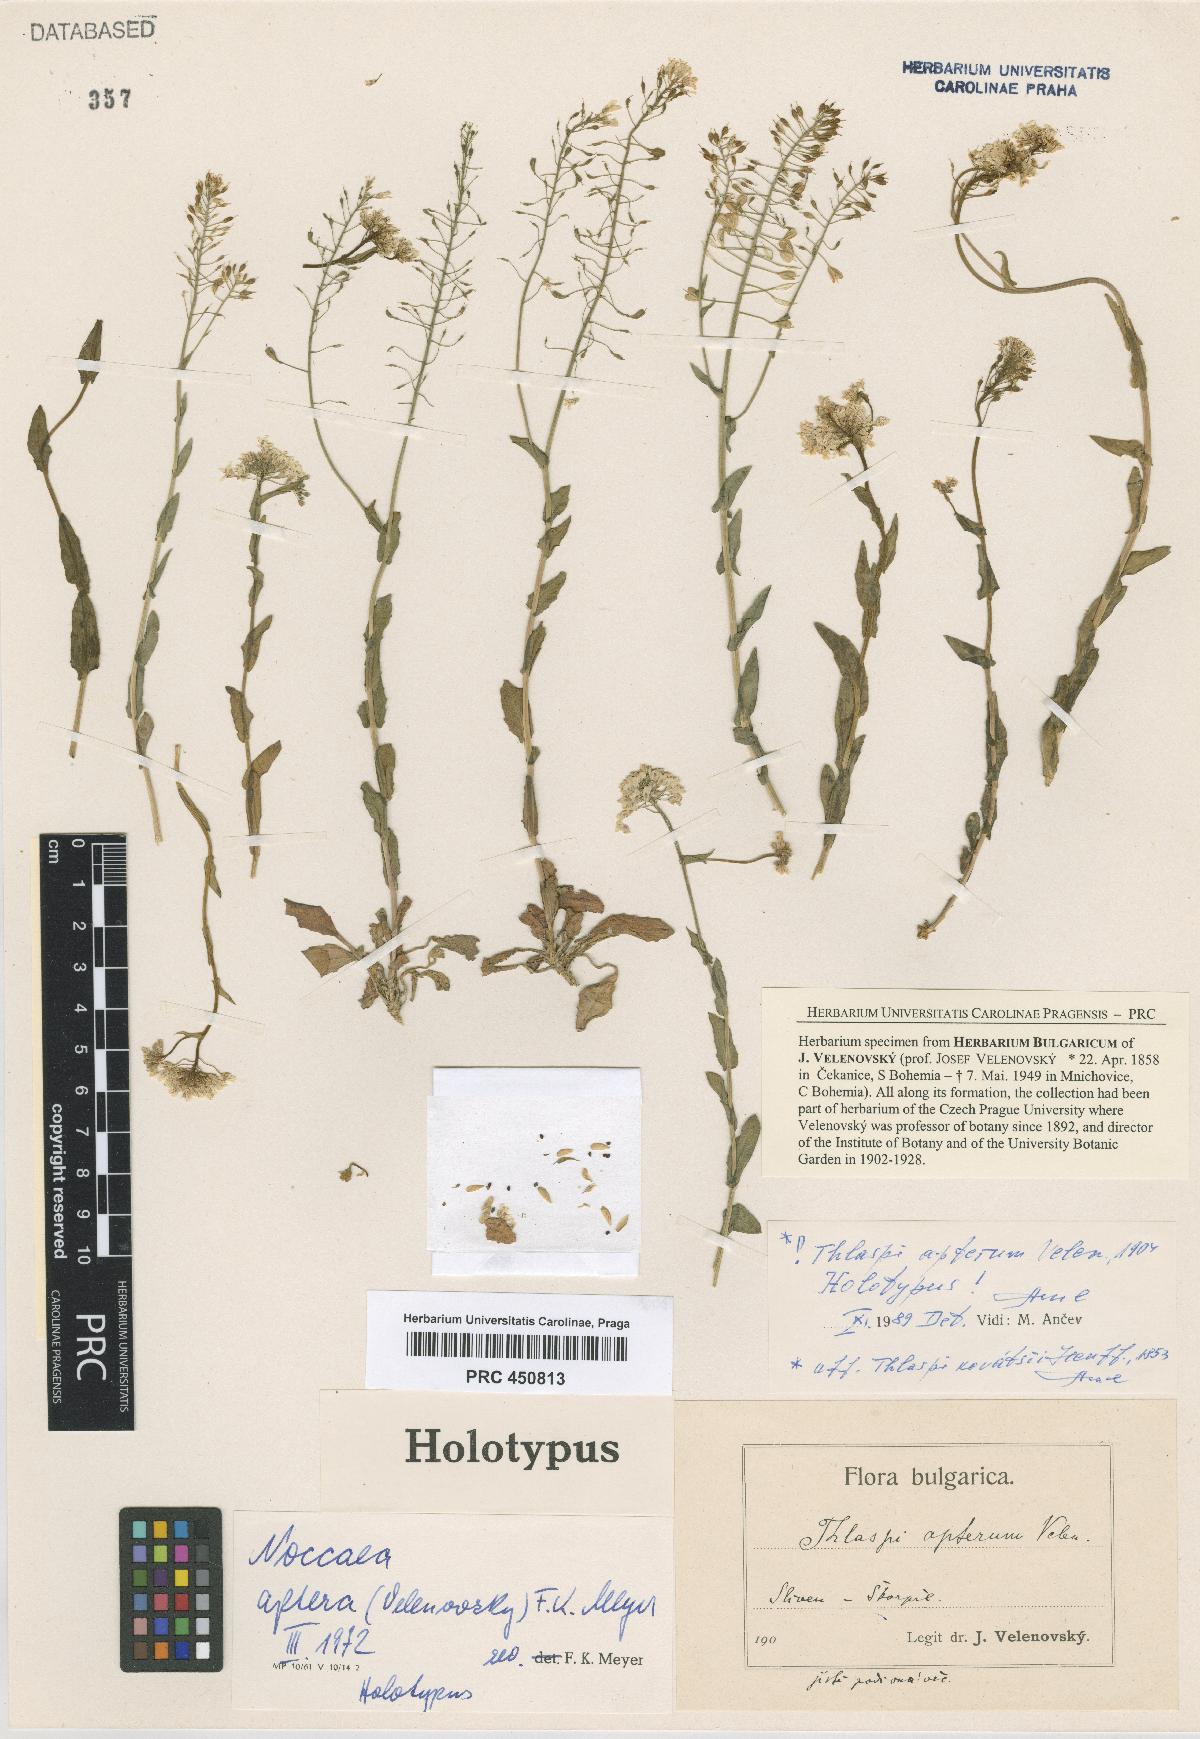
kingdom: Plantae
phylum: Tracheophyta
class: Magnoliopsida
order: Brassicales
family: Brassicaceae
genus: Noccaea
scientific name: Noccaea aptera
